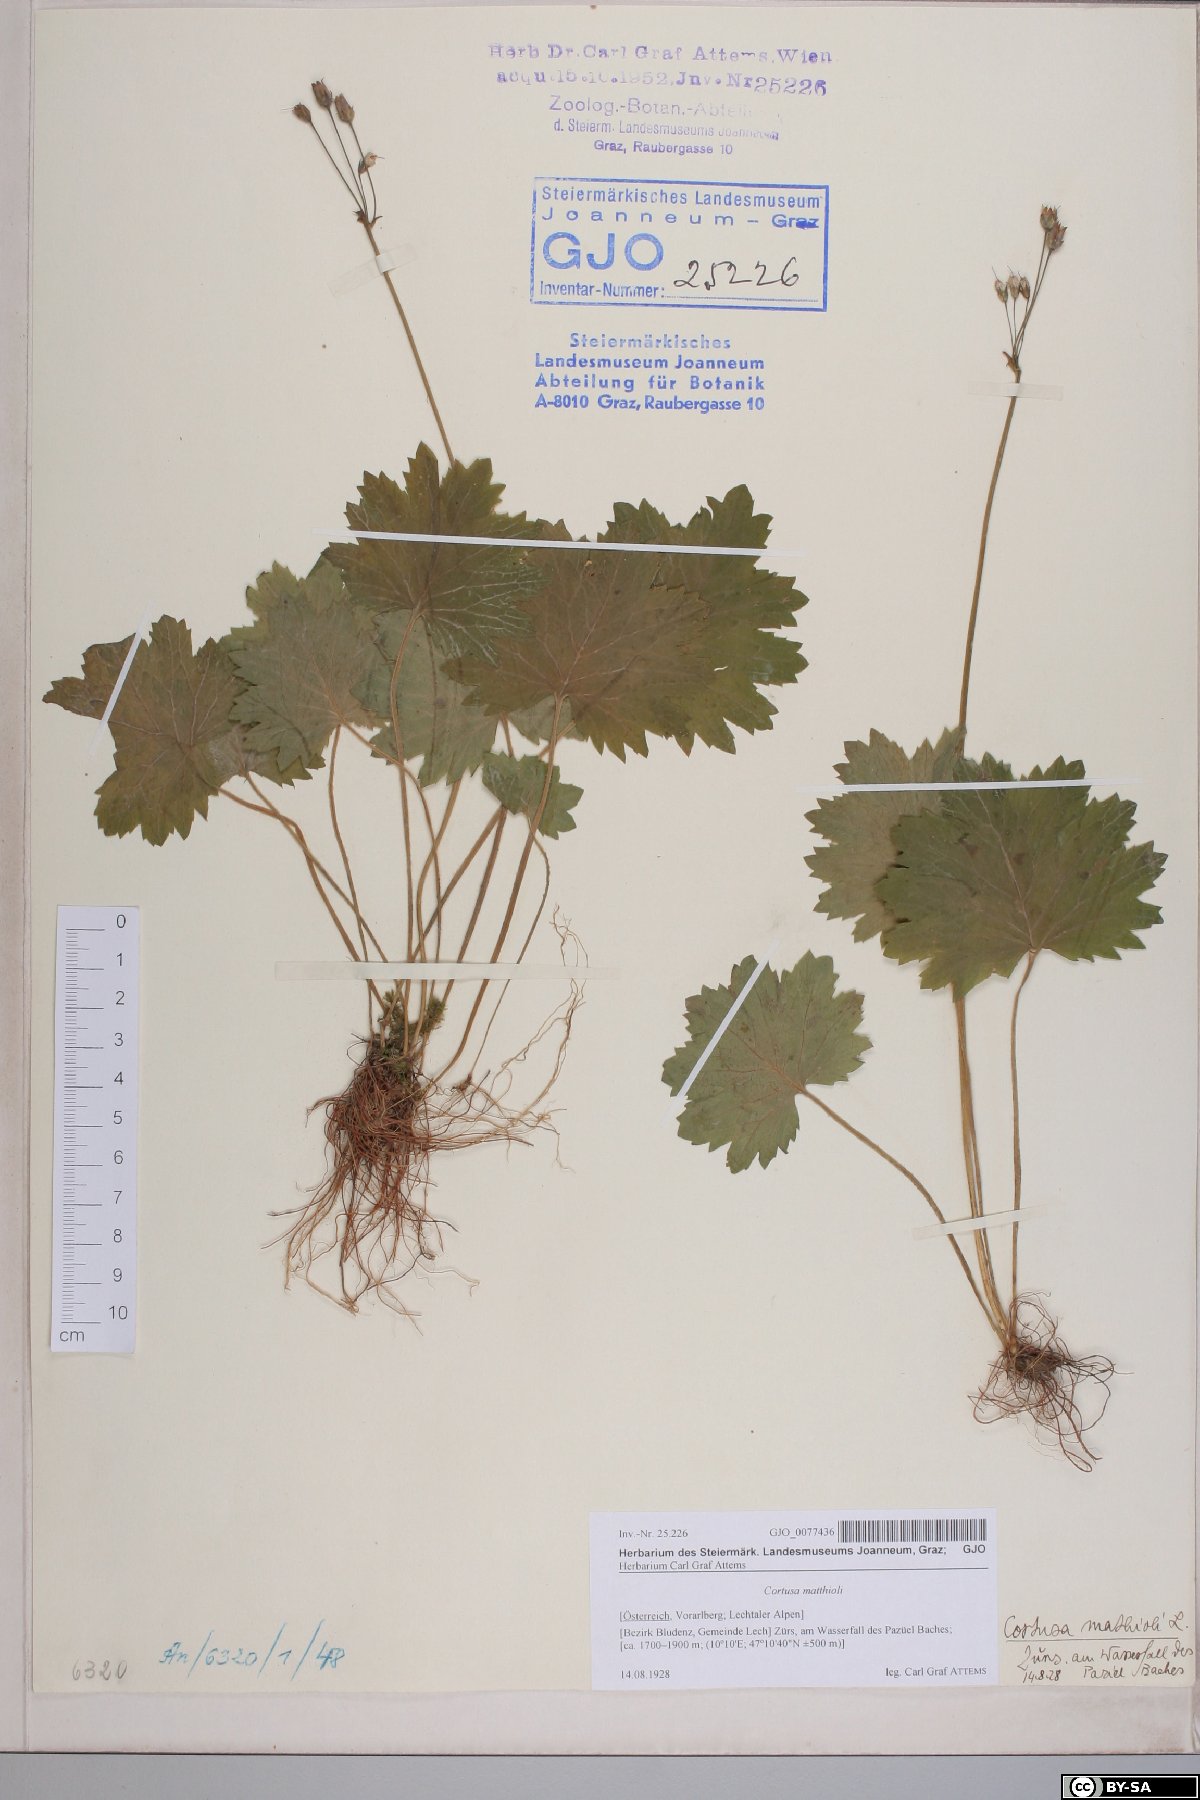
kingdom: Plantae
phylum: Tracheophyta
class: Magnoliopsida
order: Ericales
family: Primulaceae
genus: Primula
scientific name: Primula matthioli
